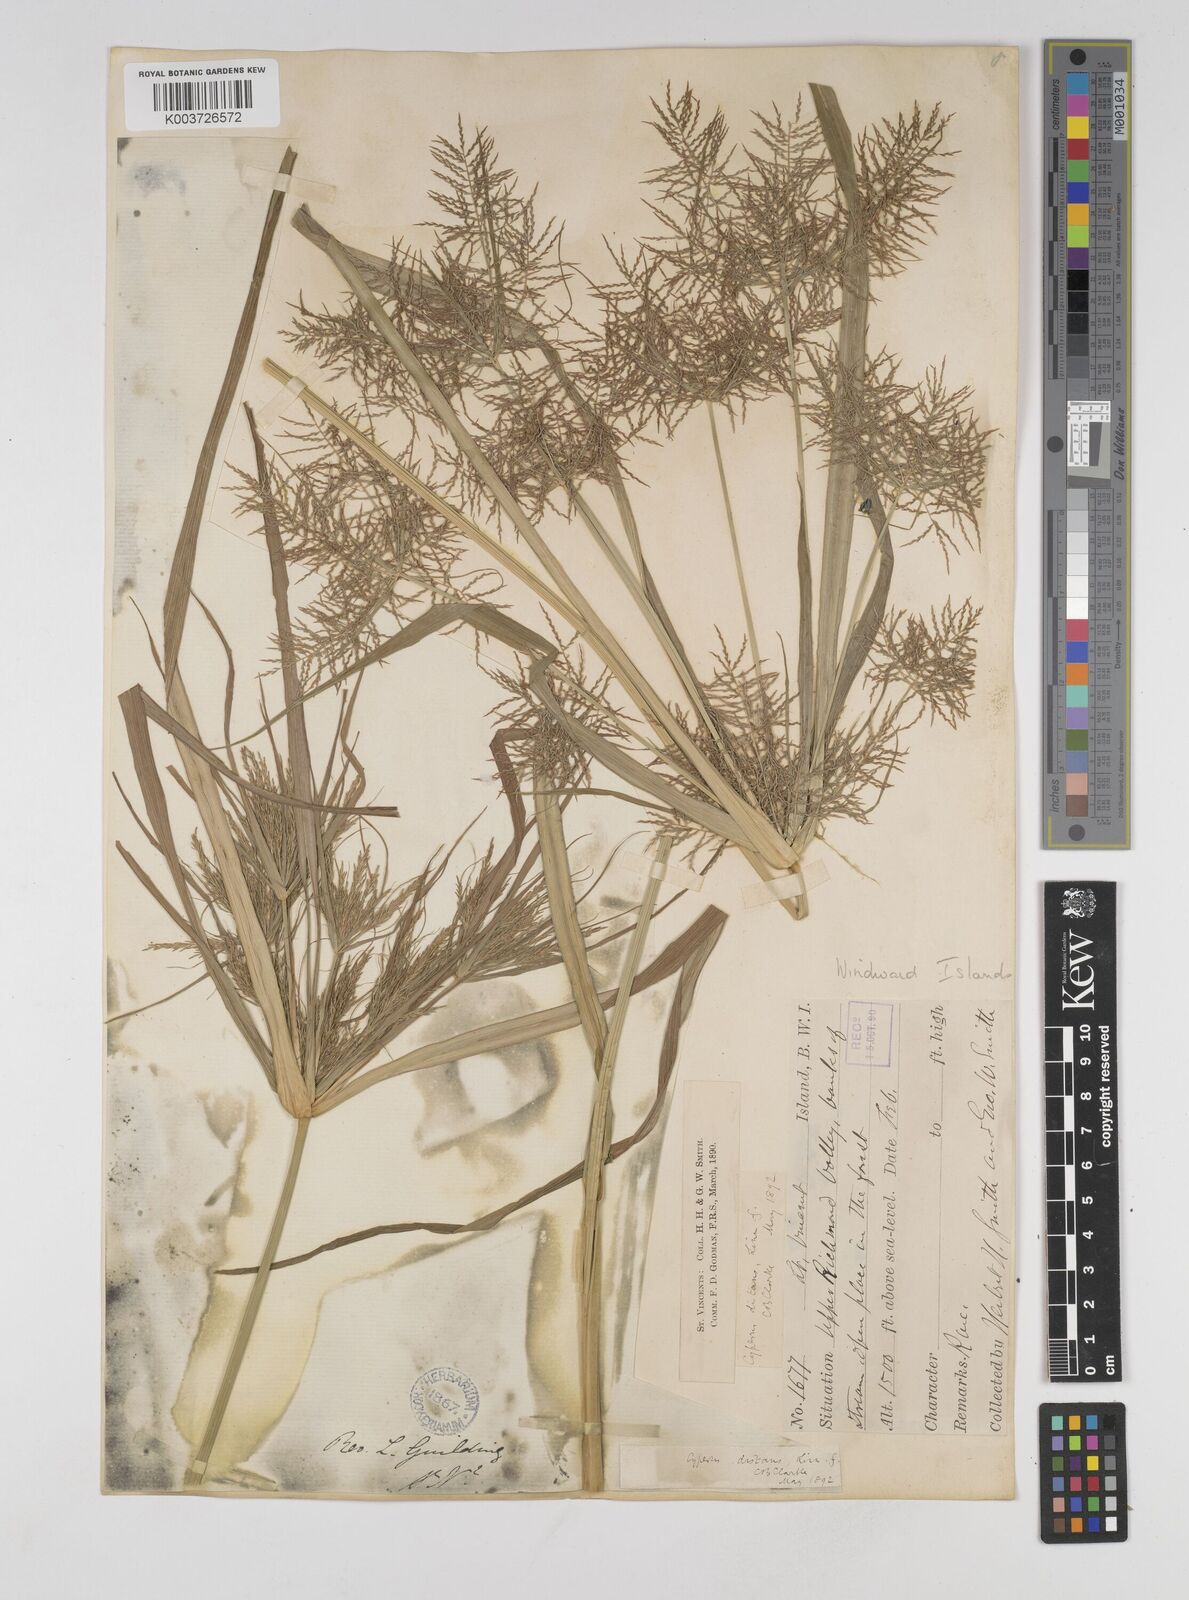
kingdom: Plantae
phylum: Tracheophyta
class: Liliopsida
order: Poales
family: Cyperaceae
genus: Cyperus
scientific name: Cyperus distans
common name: Slender cyperus
